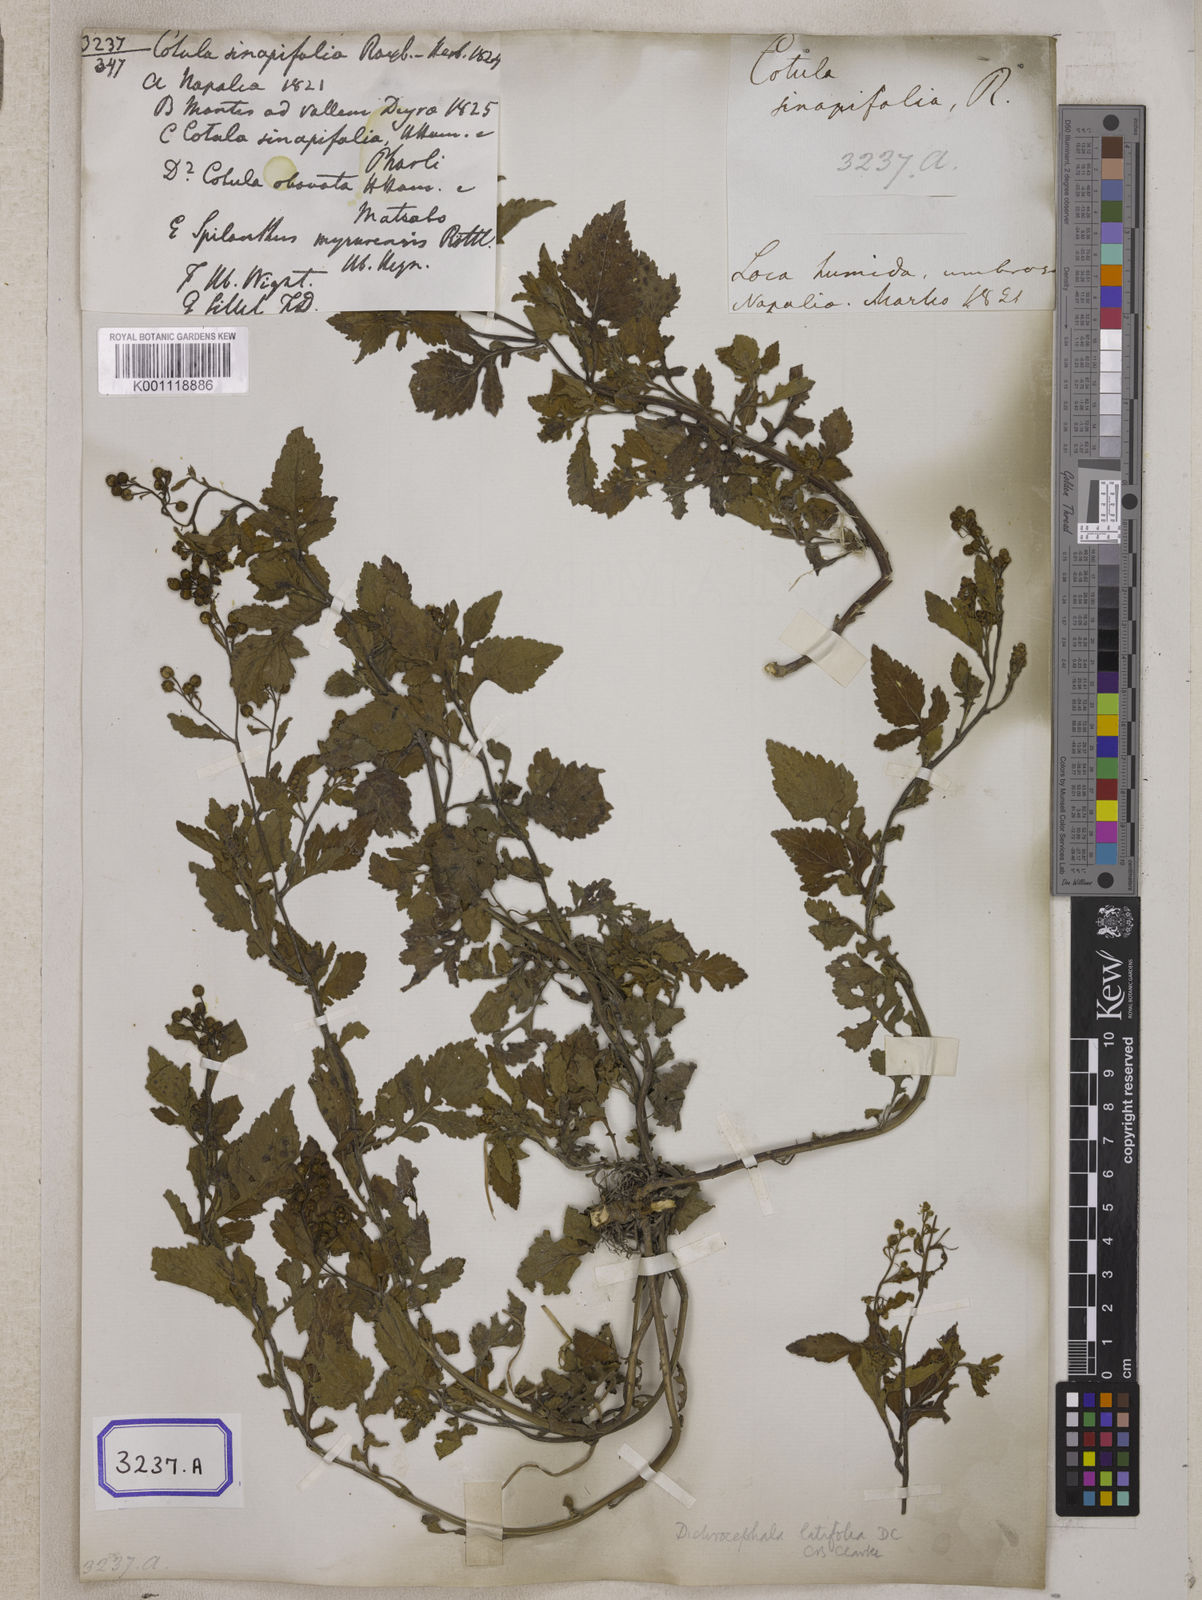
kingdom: Plantae
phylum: Tracheophyta
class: Magnoliopsida
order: Asterales
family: Asteraceae
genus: Thespis
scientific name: Thespis divaricata
